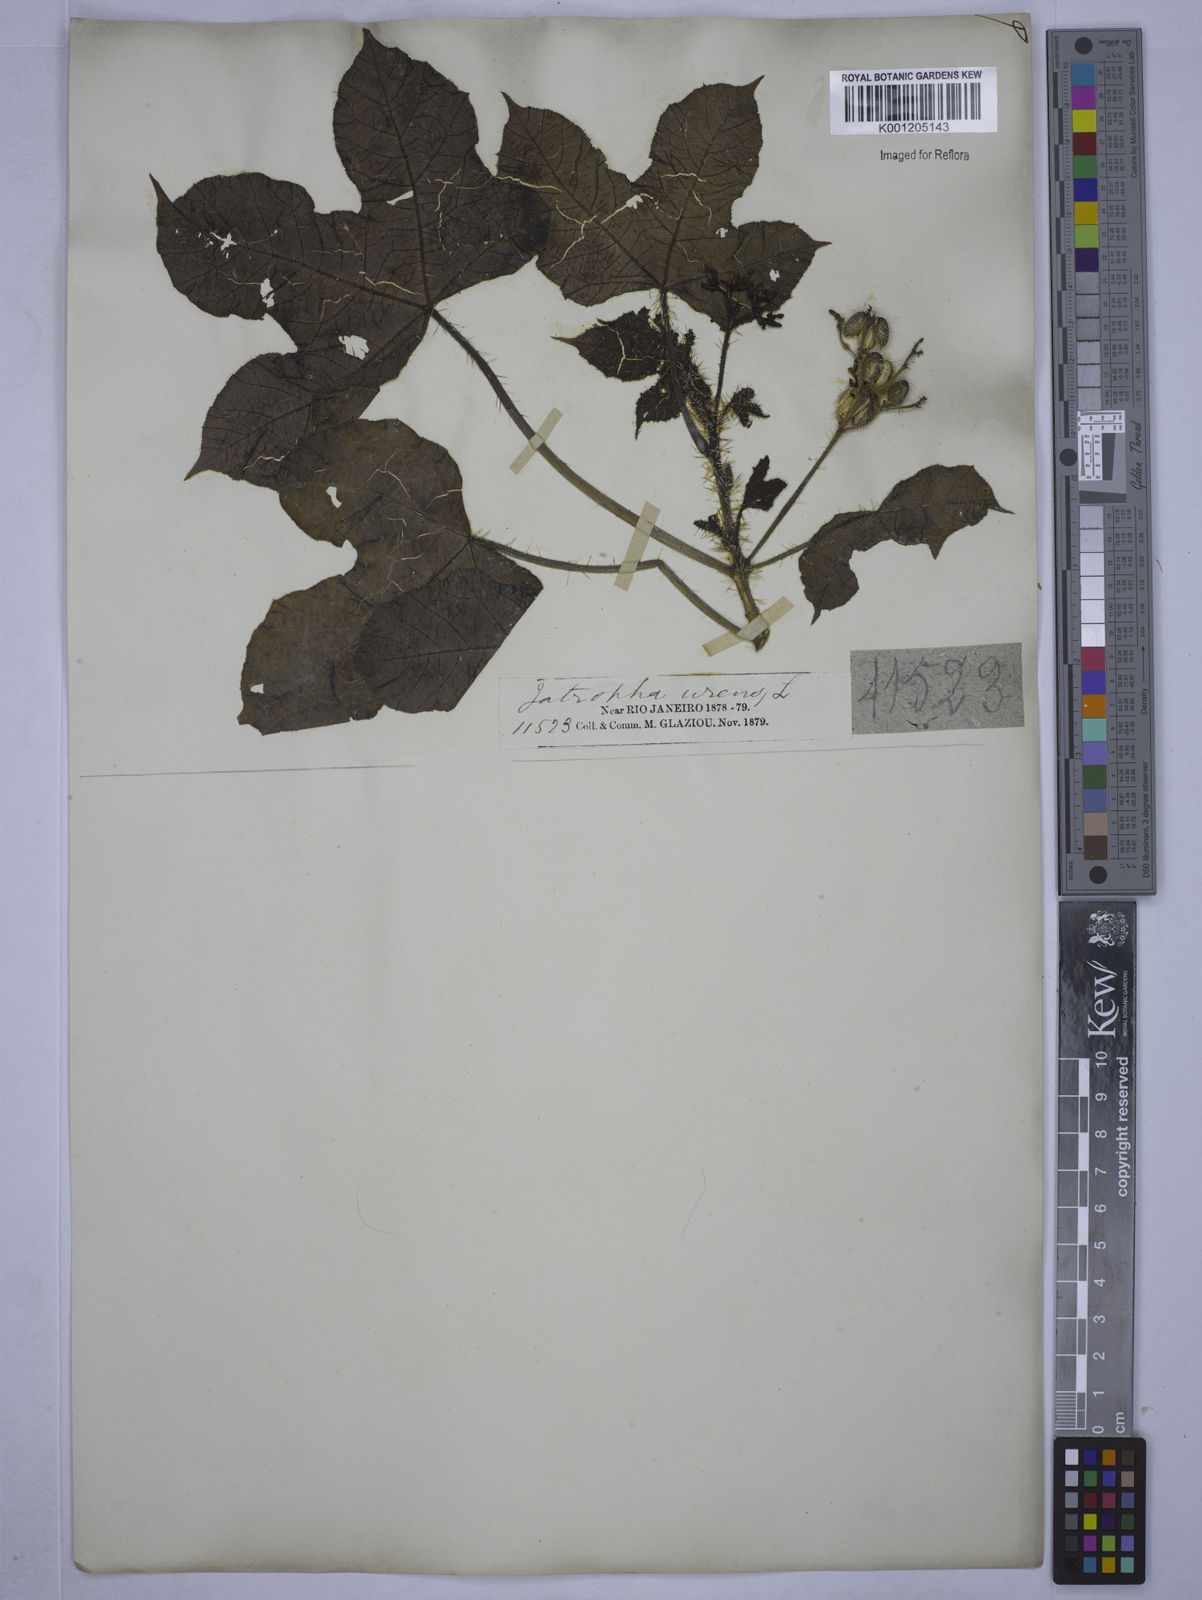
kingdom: Plantae
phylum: Tracheophyta
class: Magnoliopsida
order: Malpighiales
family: Euphorbiaceae
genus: Cnidoscolus
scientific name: Cnidoscolus urens
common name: Bull-nettle
